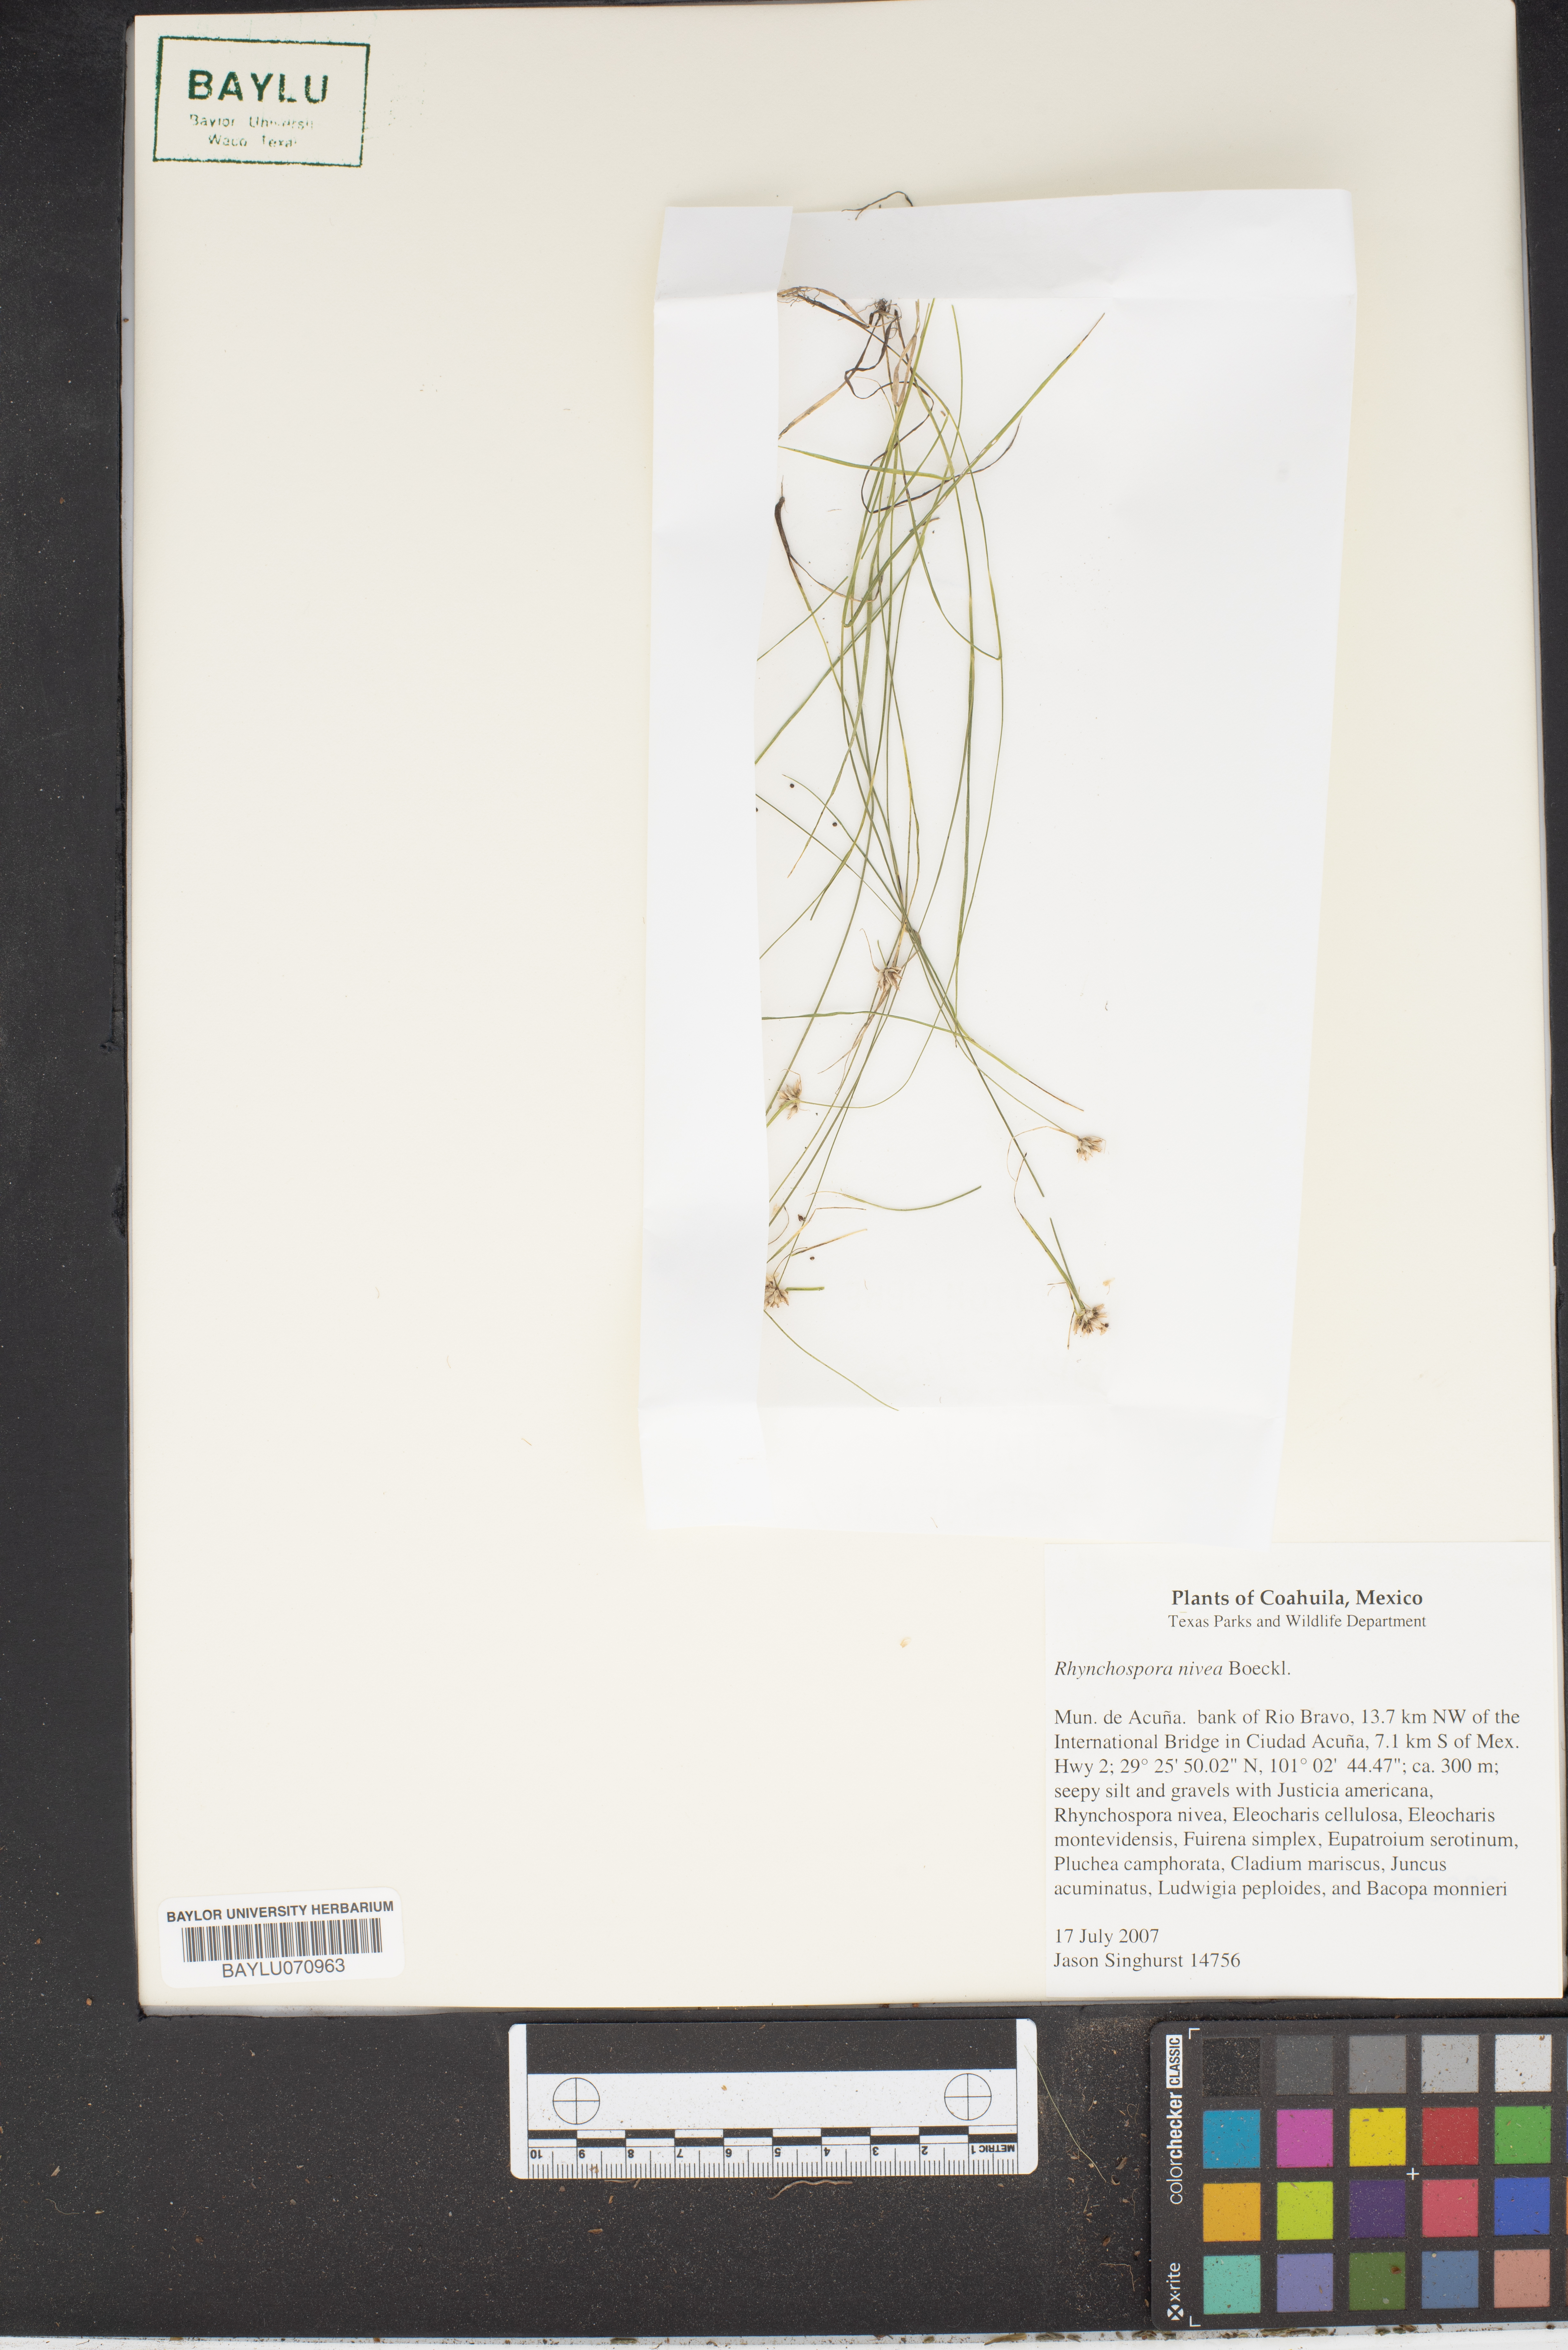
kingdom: Plantae
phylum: Tracheophyta
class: Liliopsida
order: Poales
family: Cyperaceae
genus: Rhynchospora
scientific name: Rhynchospora nivea
